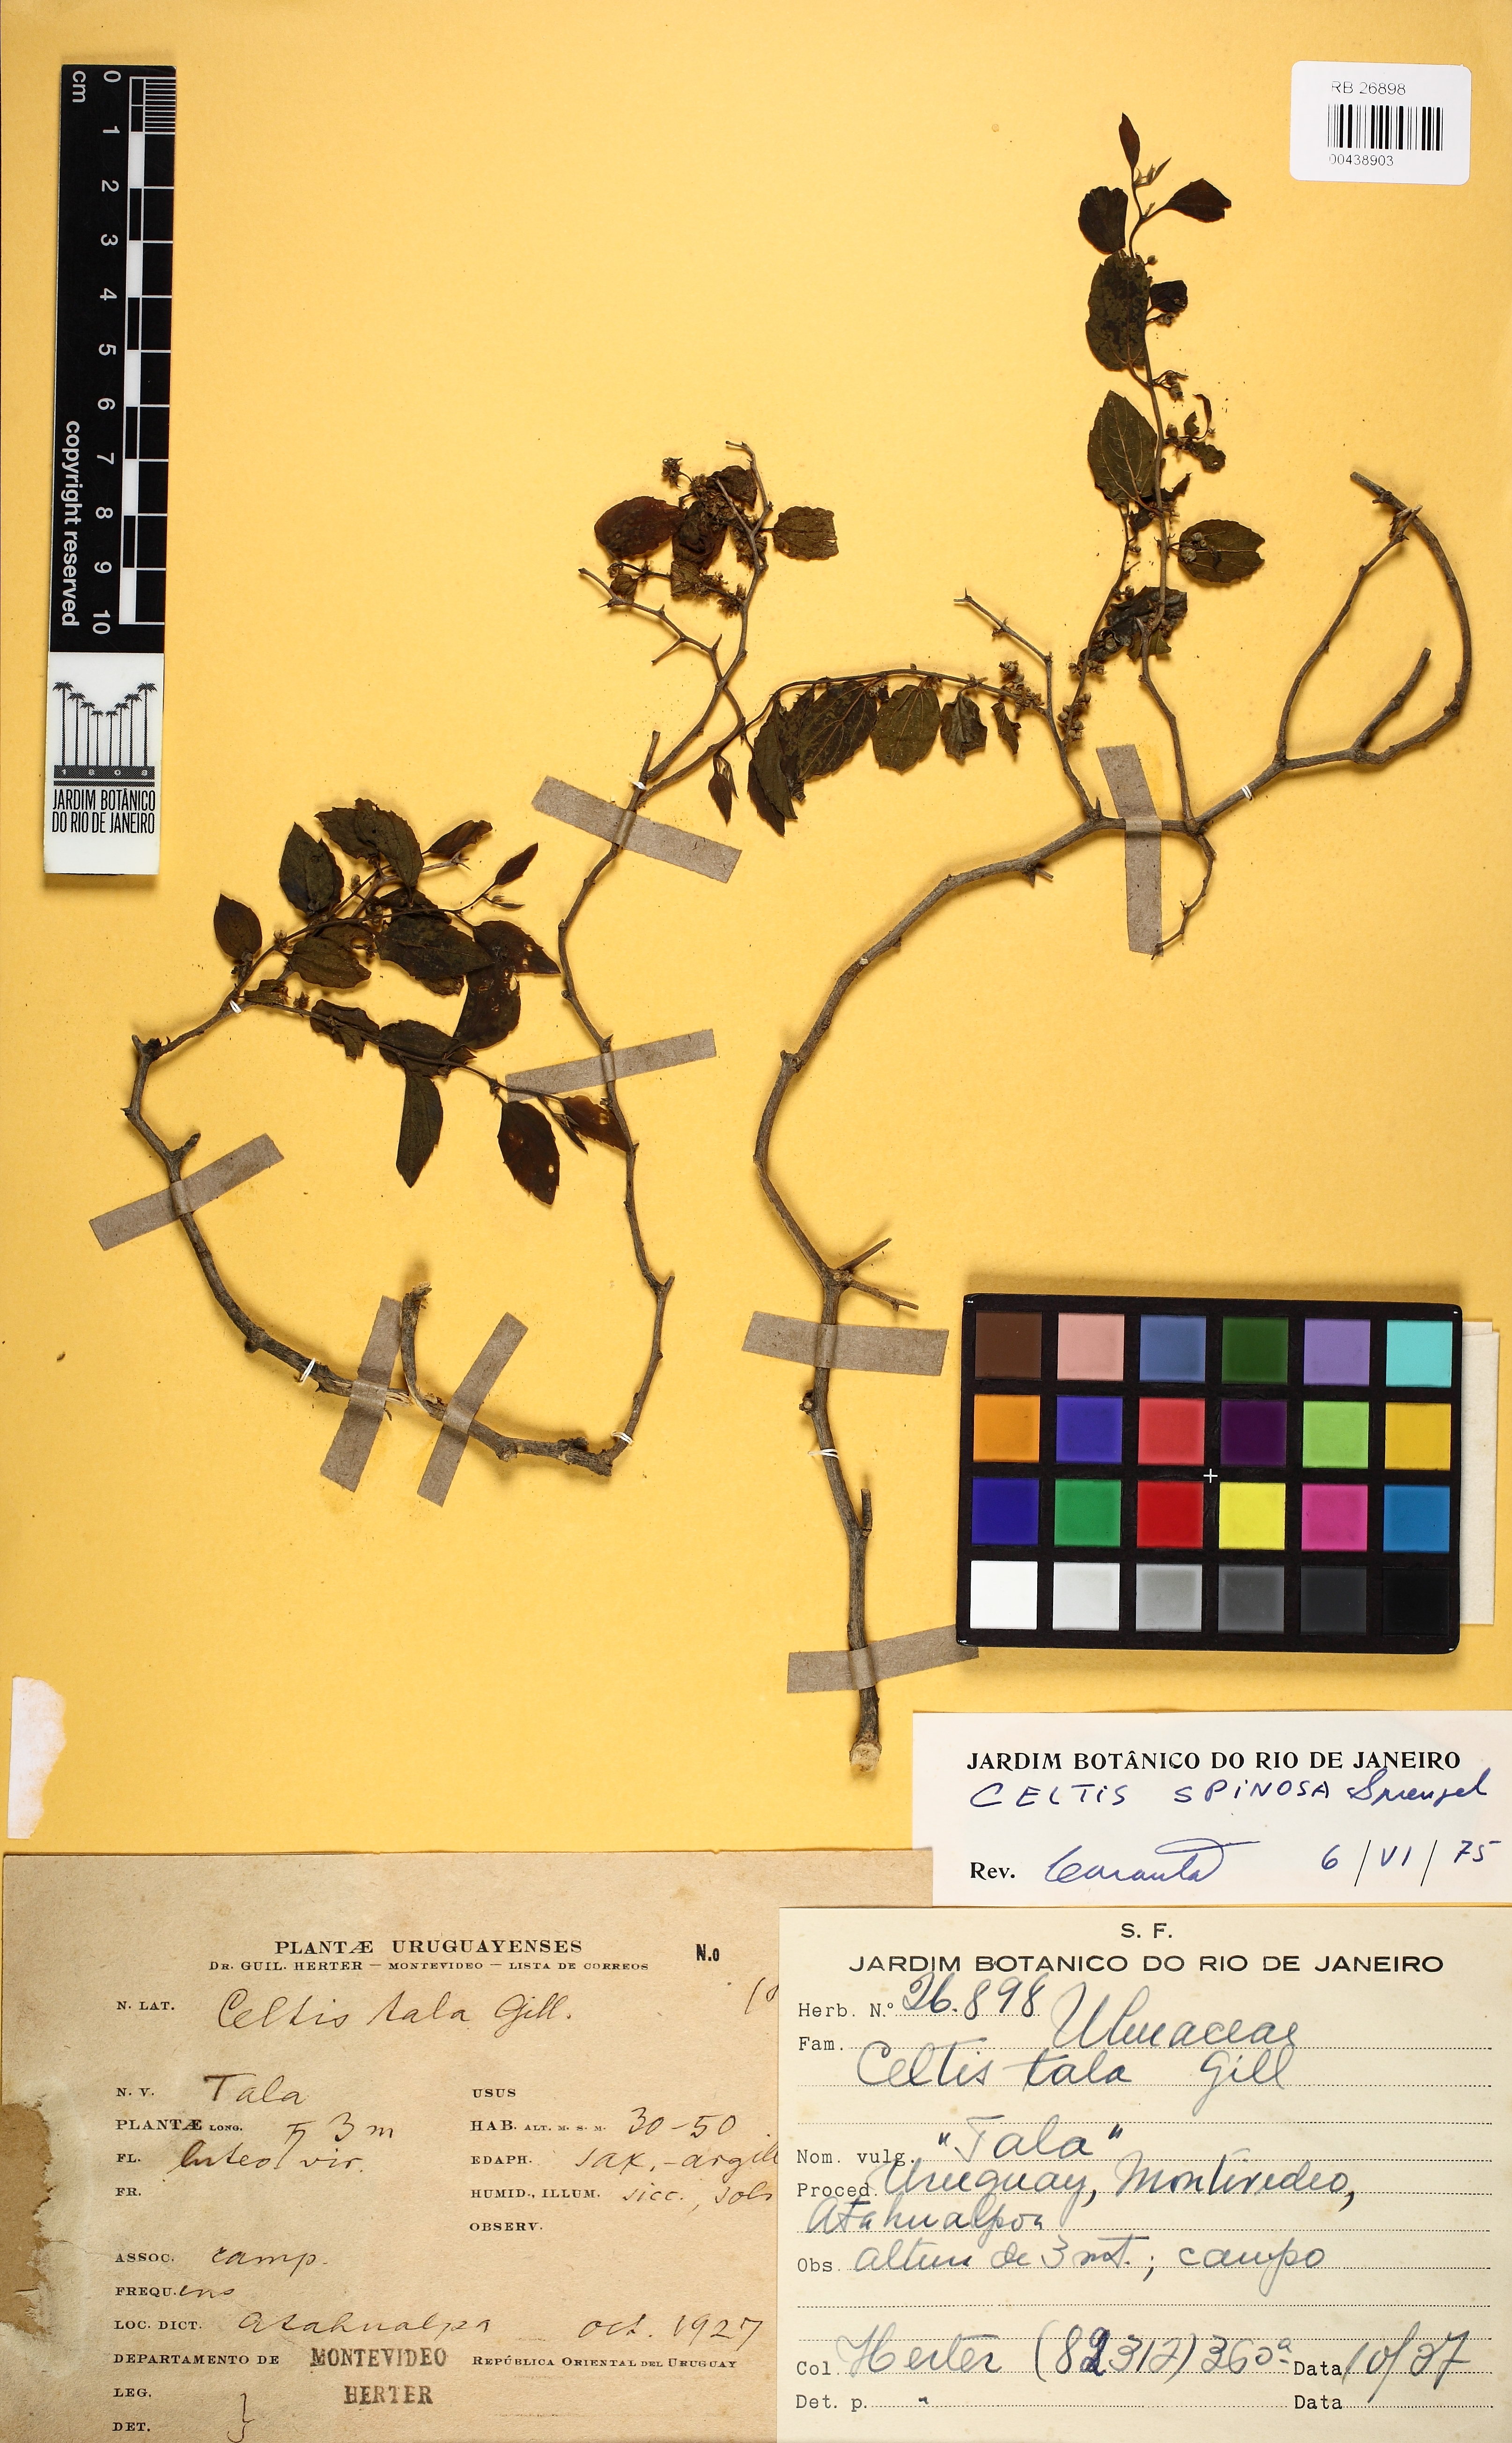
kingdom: Plantae
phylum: Tracheophyta
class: Magnoliopsida
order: Rosales
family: Ulmaceae
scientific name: Ulmaceae
